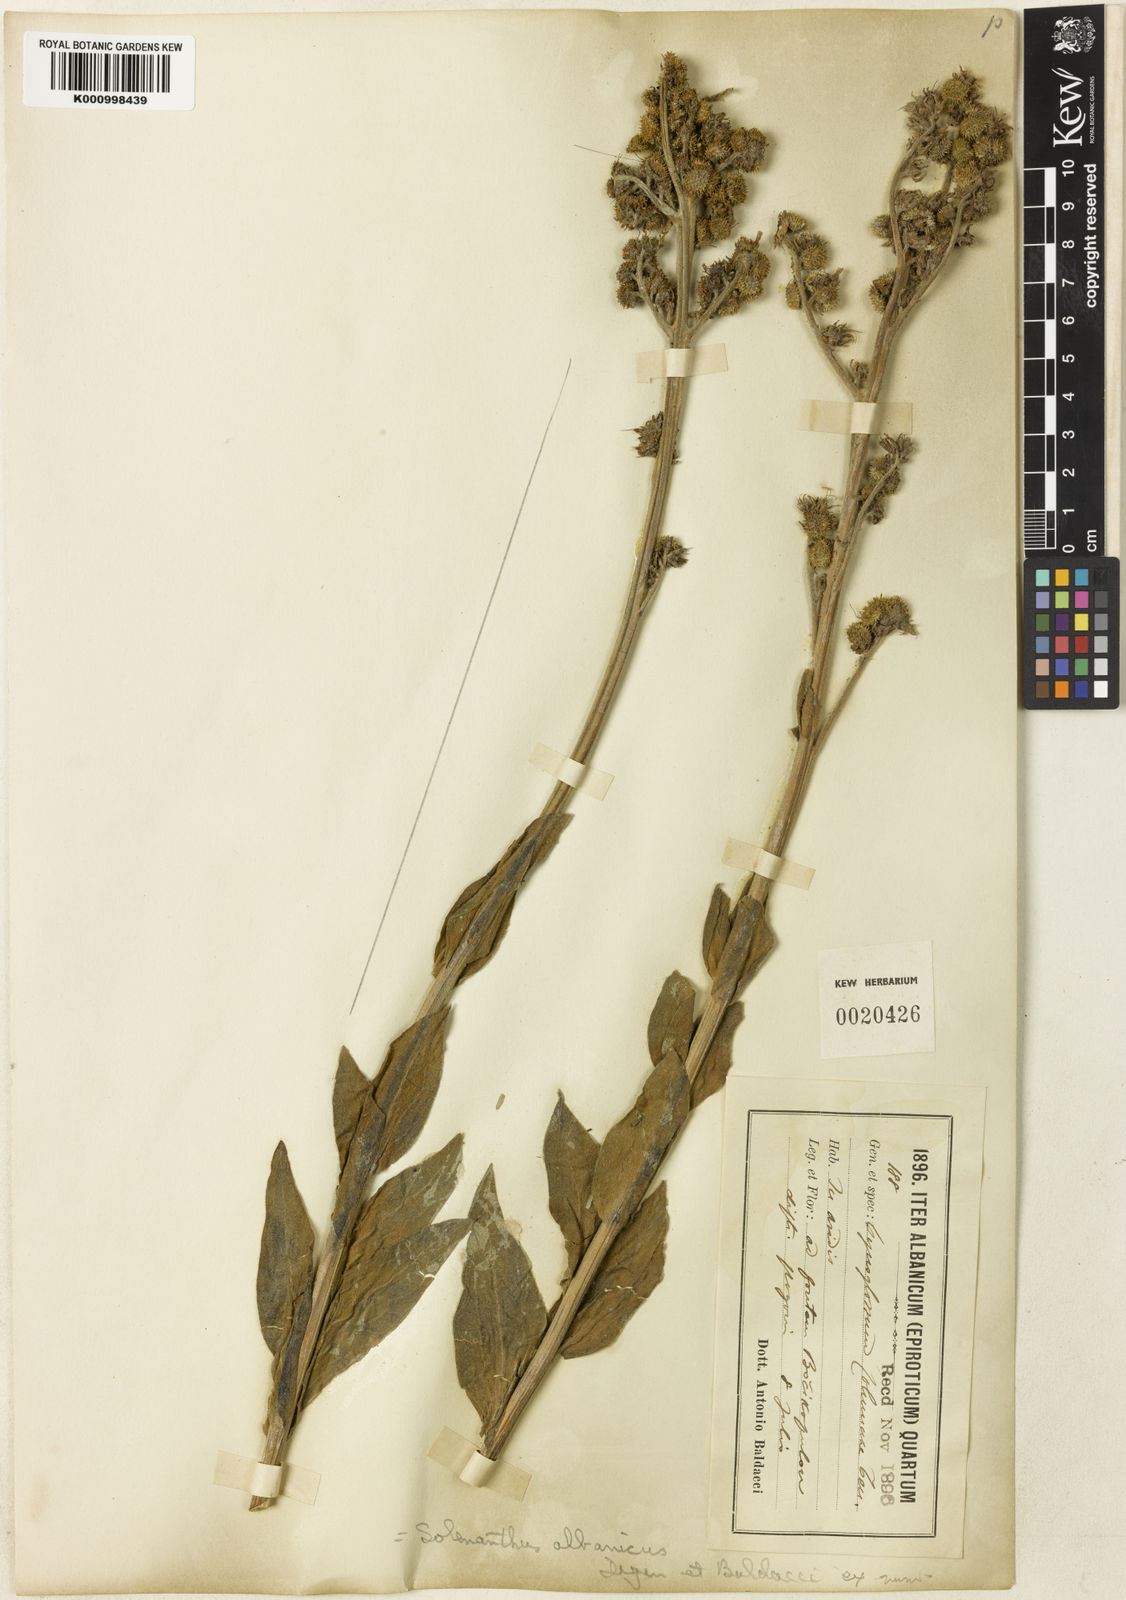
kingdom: Plantae
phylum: Tracheophyta
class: Magnoliopsida
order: Boraginales
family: Boraginaceae
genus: Solenanthus
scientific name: Solenanthus albanicus
